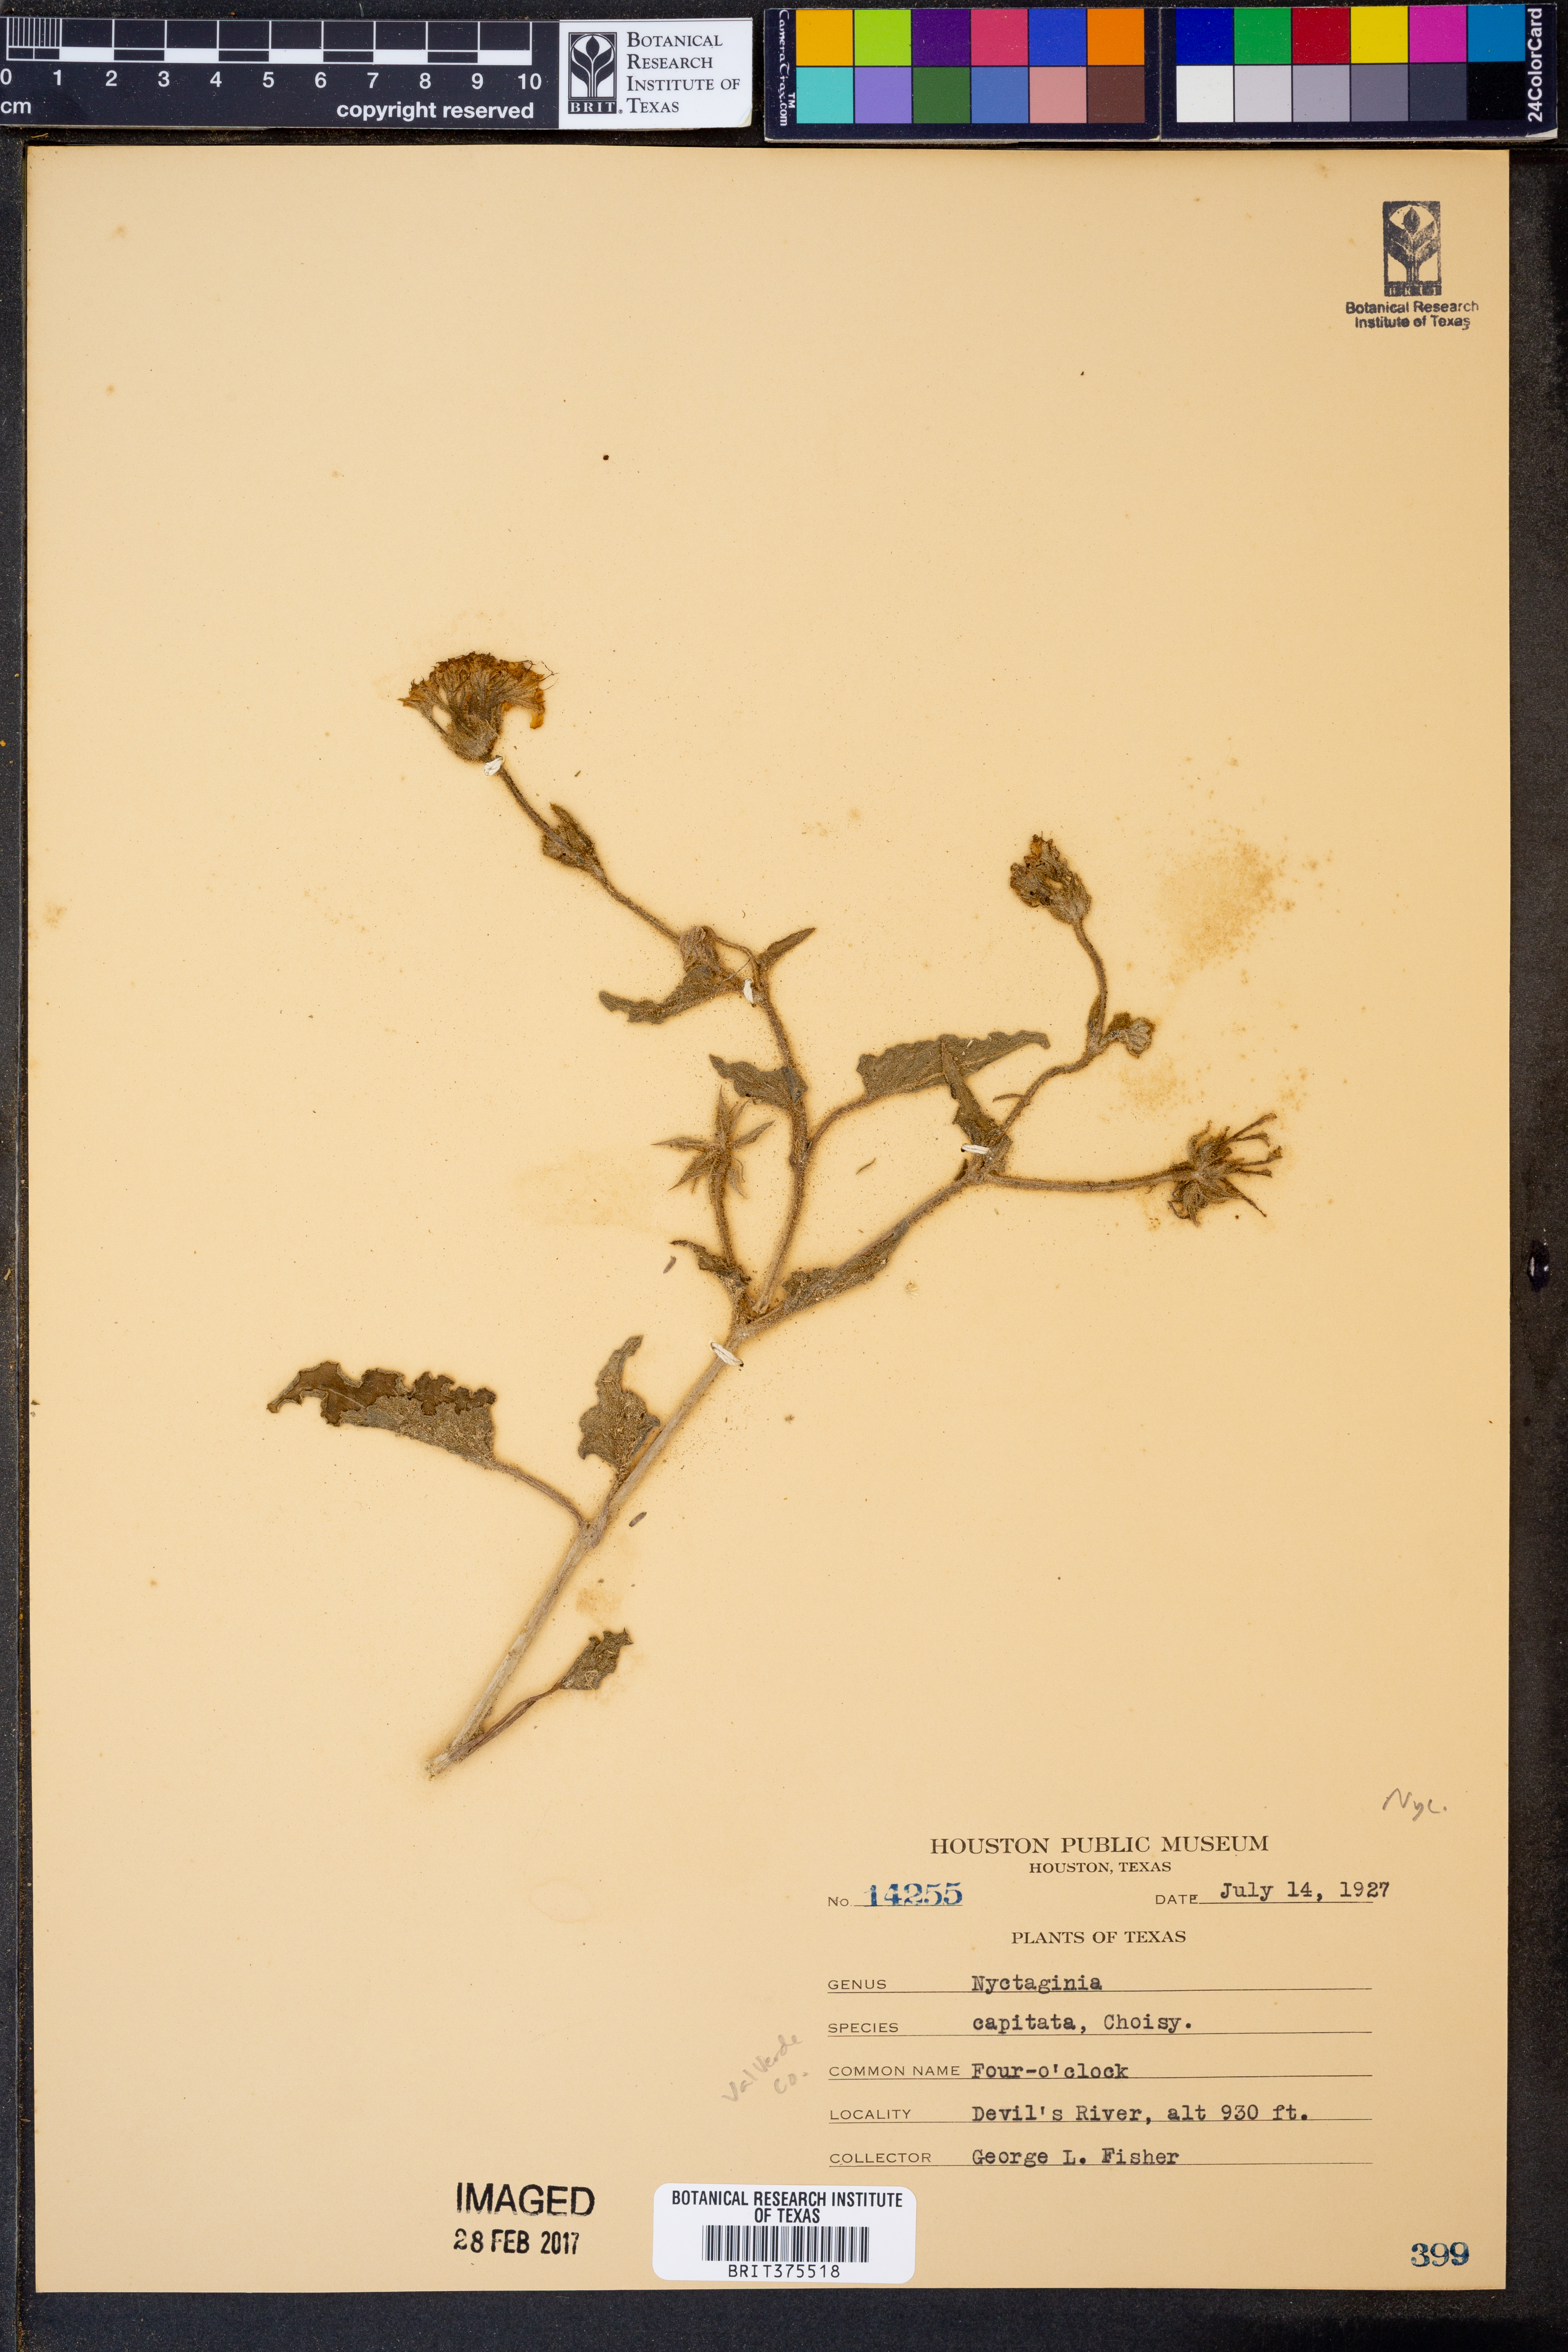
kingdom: Plantae
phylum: Tracheophyta
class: Magnoliopsida
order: Caryophyllales
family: Nyctaginaceae
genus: Nyctaginia
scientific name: Nyctaginia capitata
